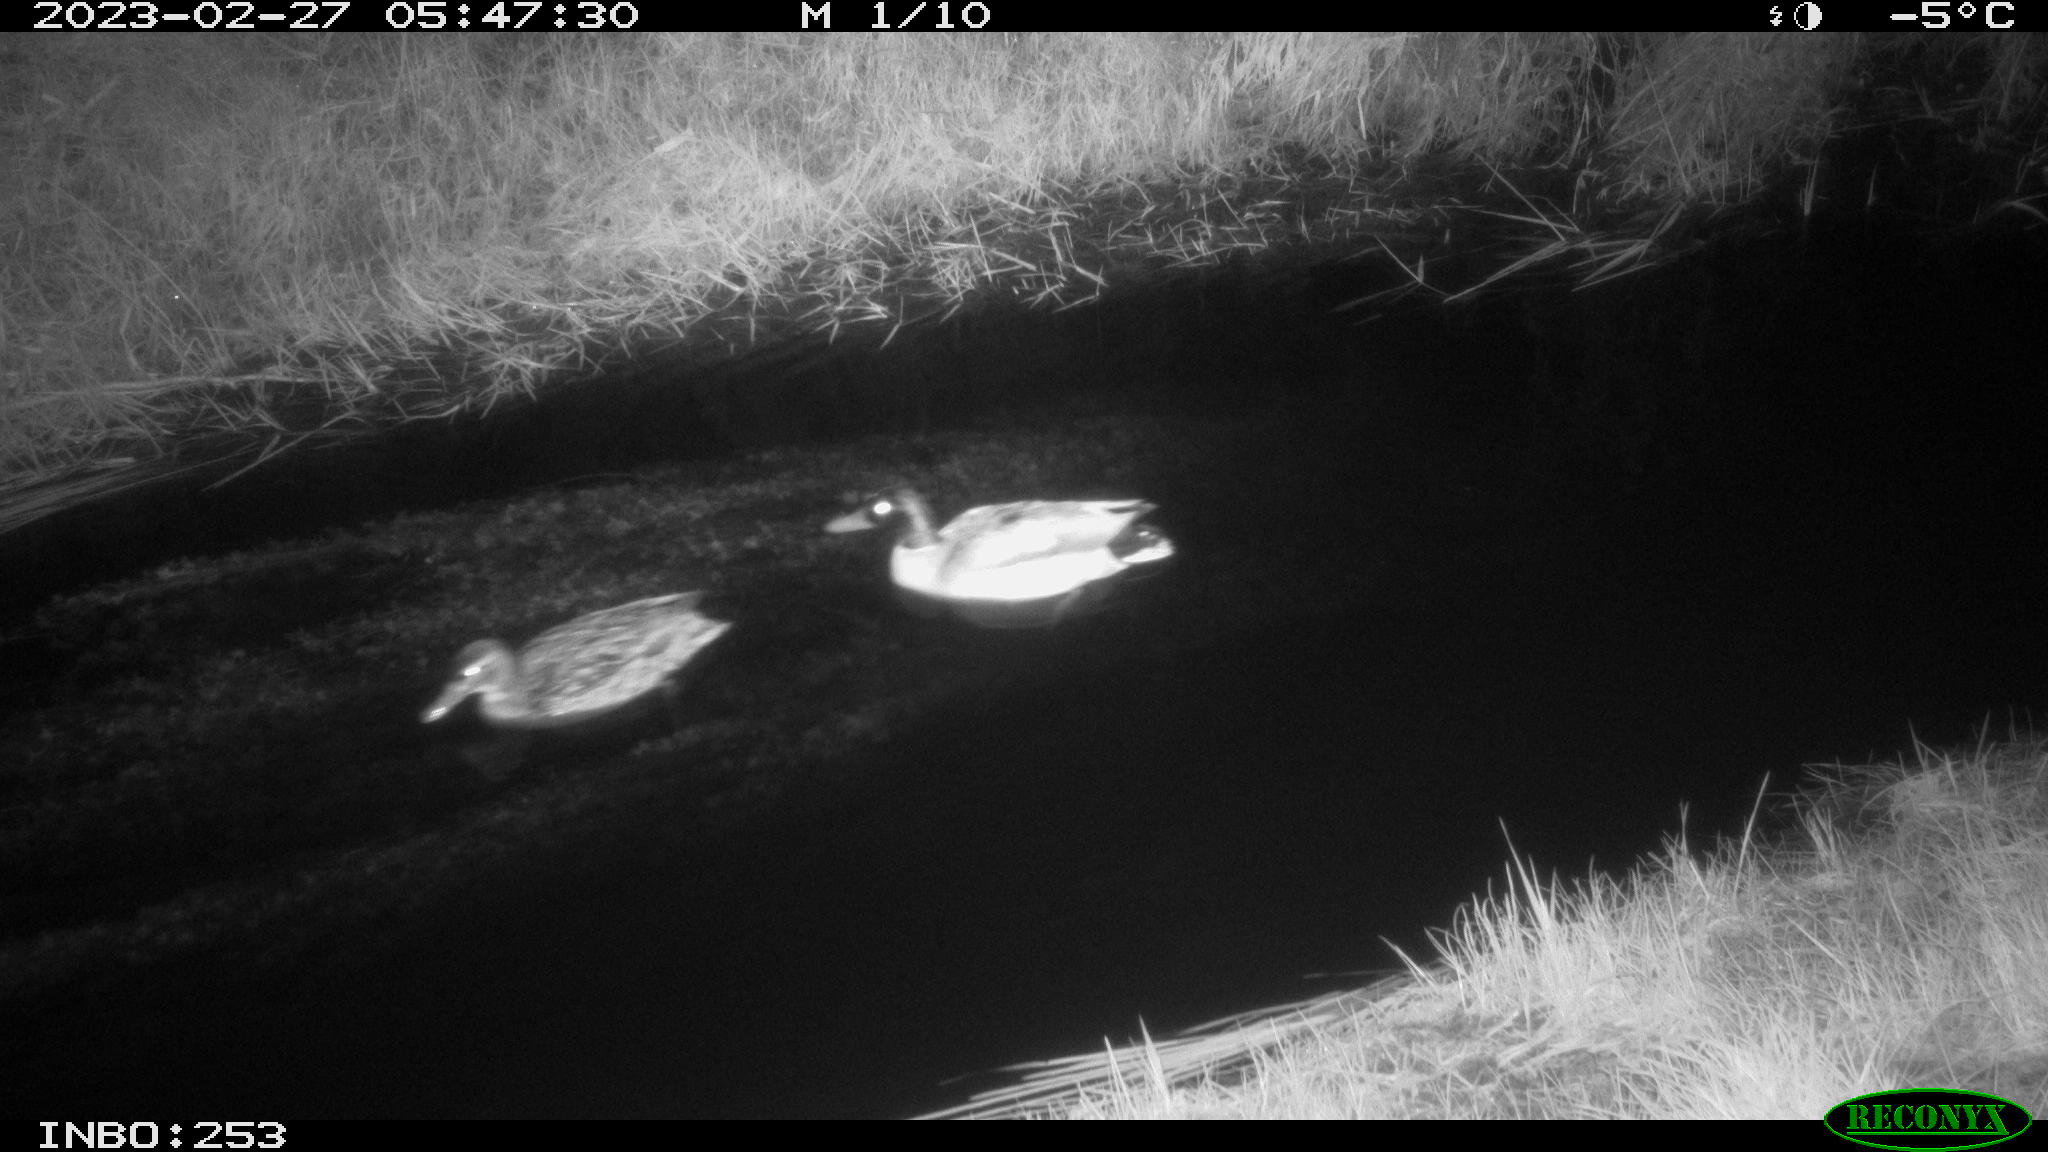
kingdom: Animalia
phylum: Chordata
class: Aves
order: Anseriformes
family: Anatidae
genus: Anas
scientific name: Anas
